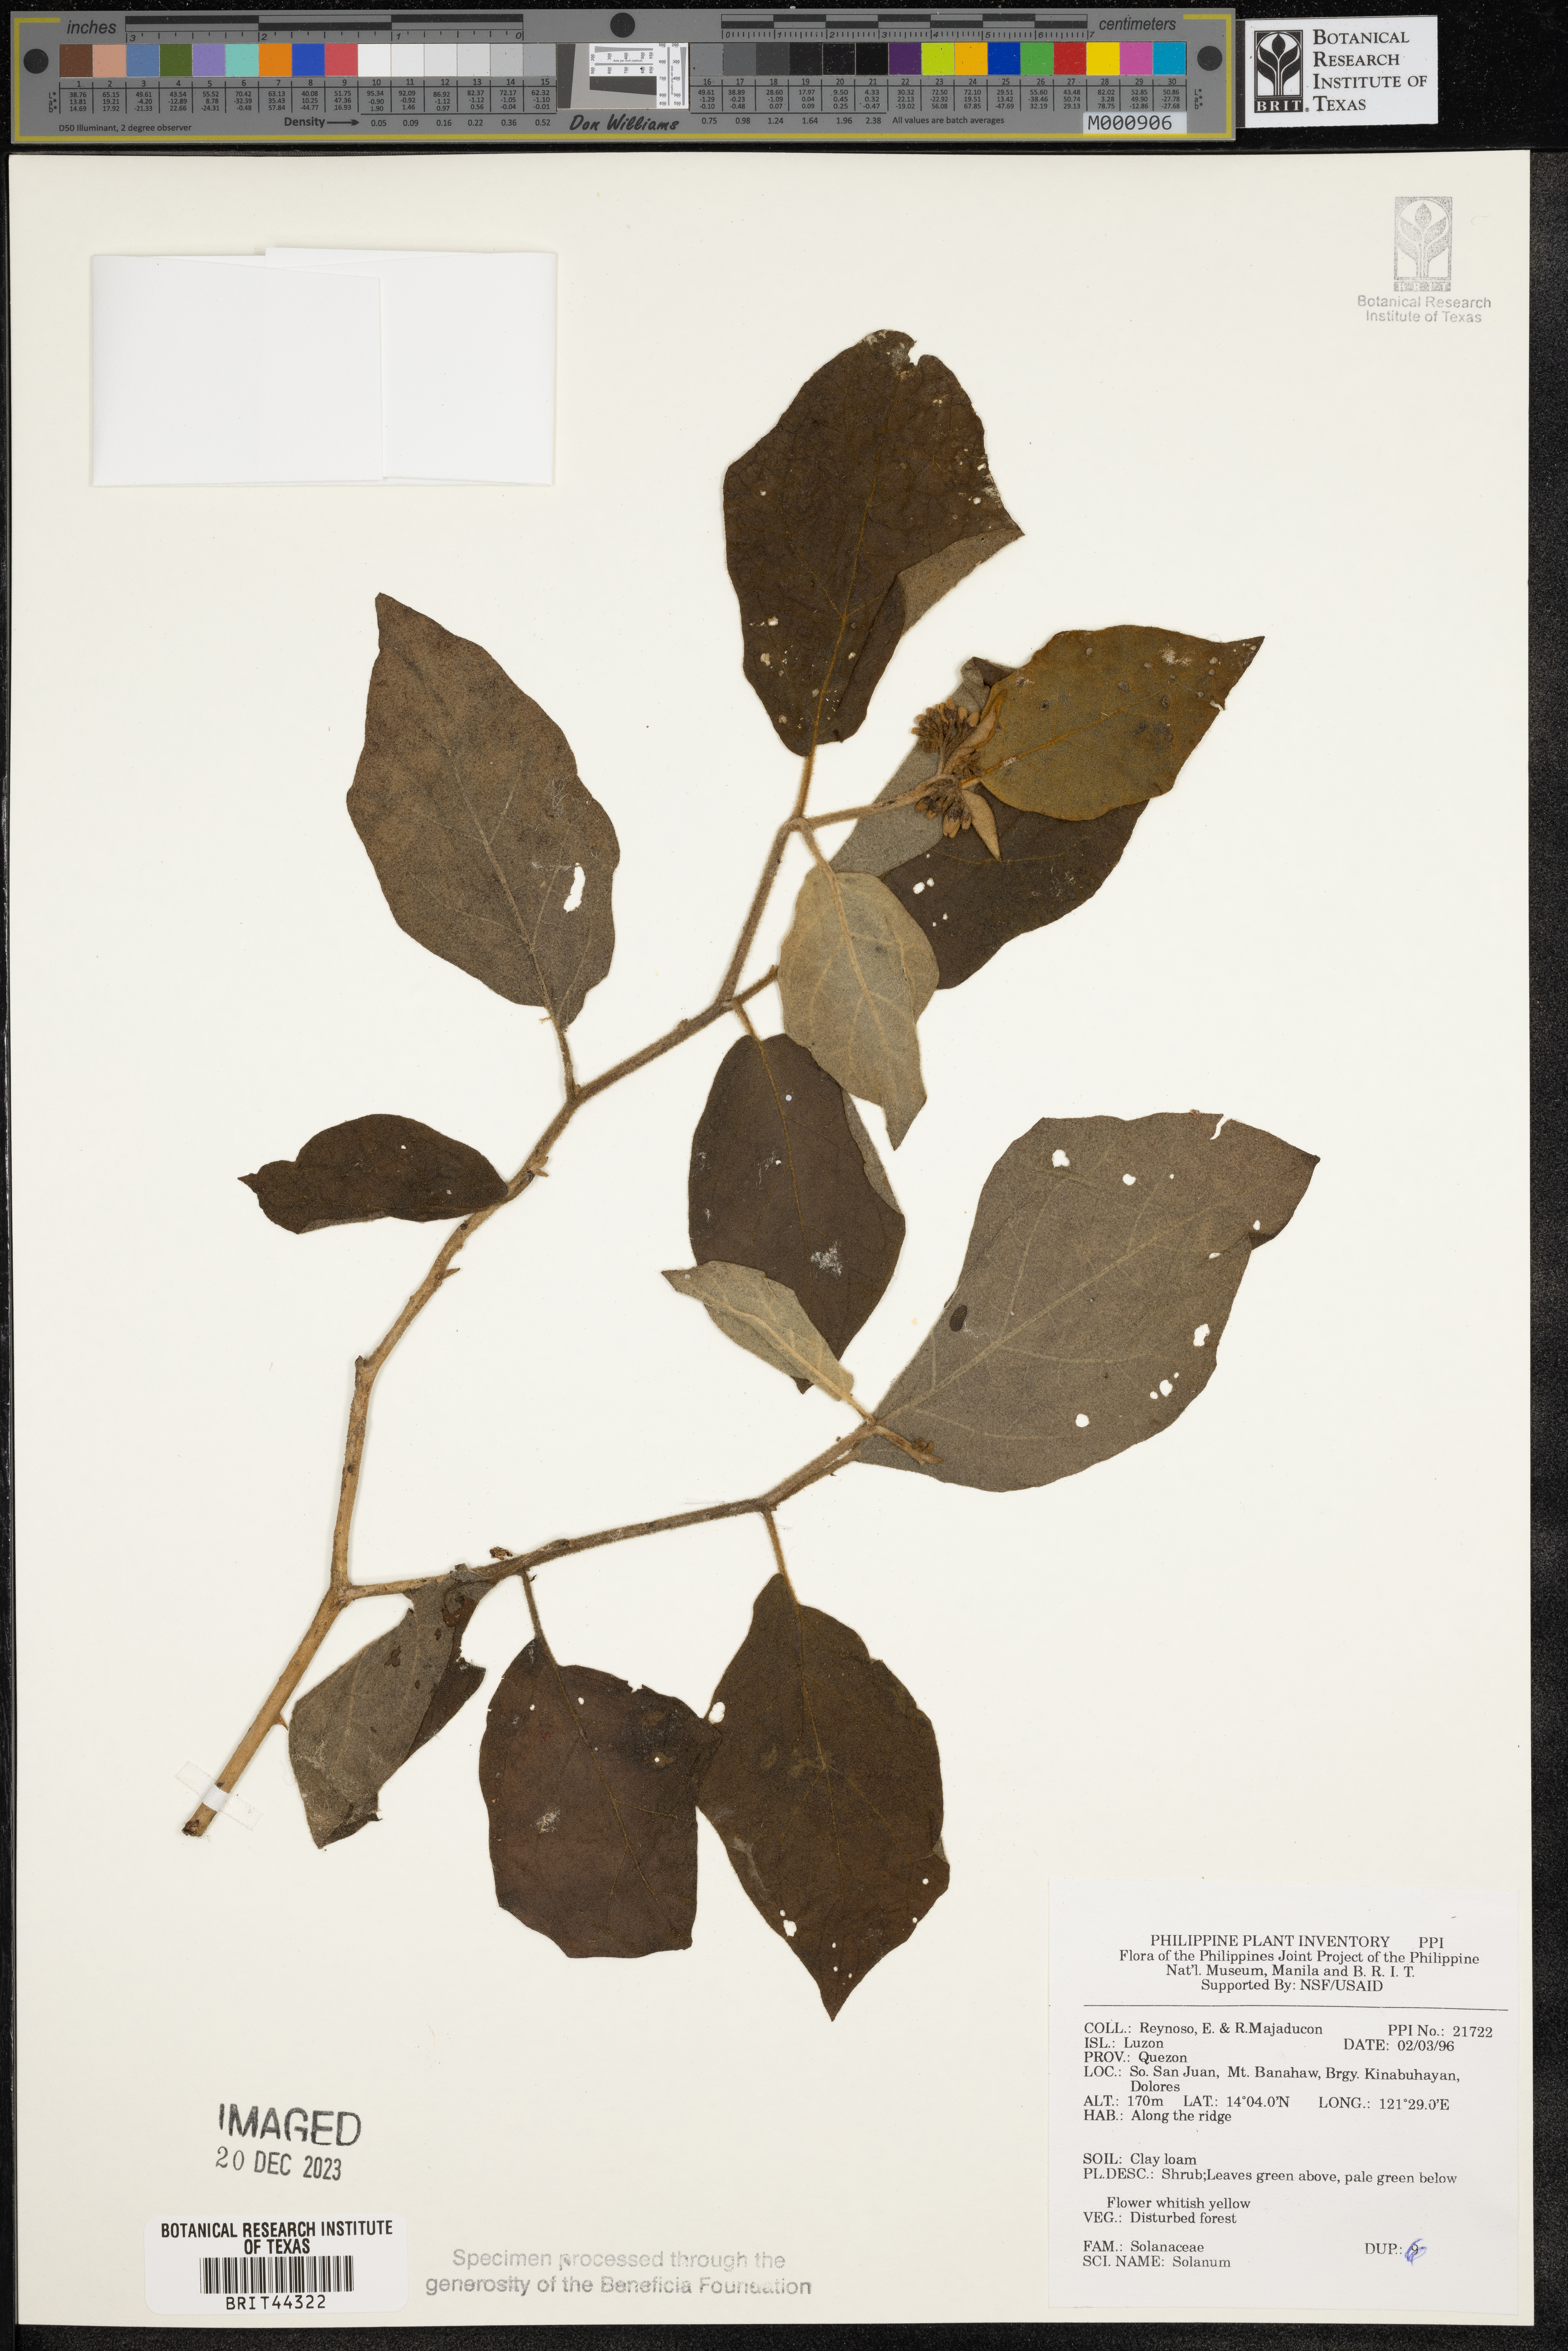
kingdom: Plantae
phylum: Tracheophyta
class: Magnoliopsida
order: Solanales
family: Solanaceae
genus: Solanum
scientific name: Solanum
